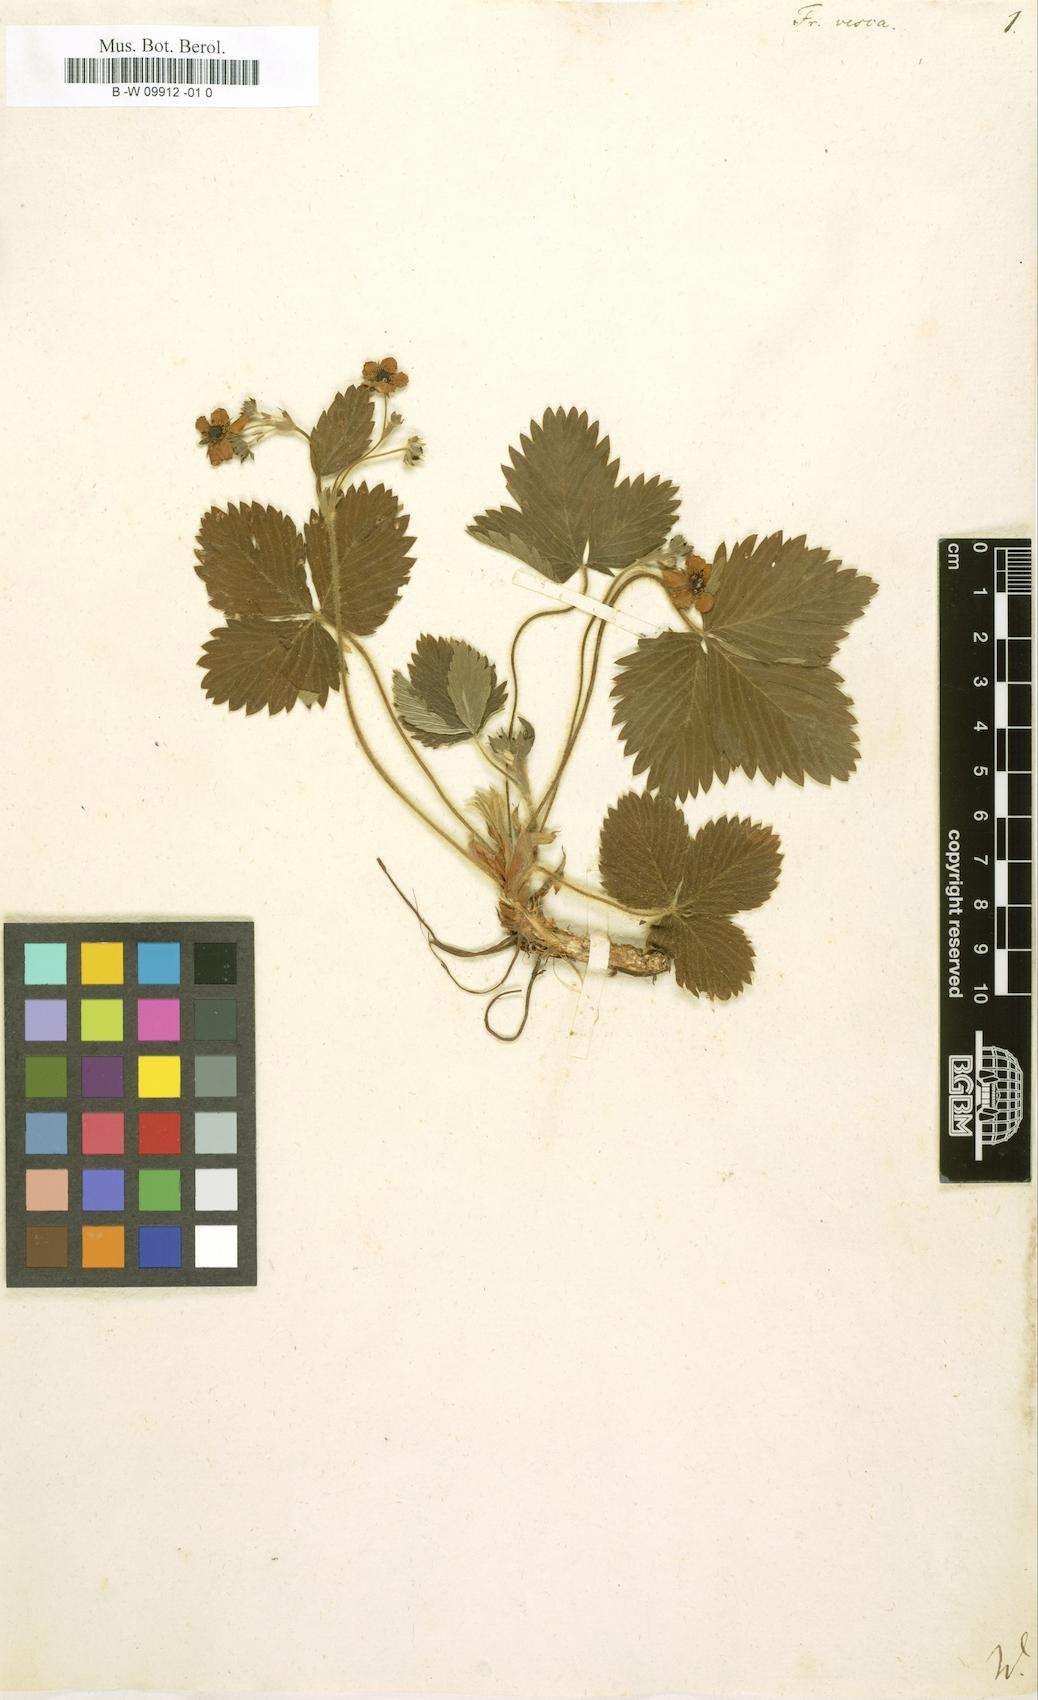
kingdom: Plantae
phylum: Tracheophyta
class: Magnoliopsida
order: Rosales
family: Rosaceae
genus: Fragaria
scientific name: Fragaria vesca
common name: Wild strawberry
